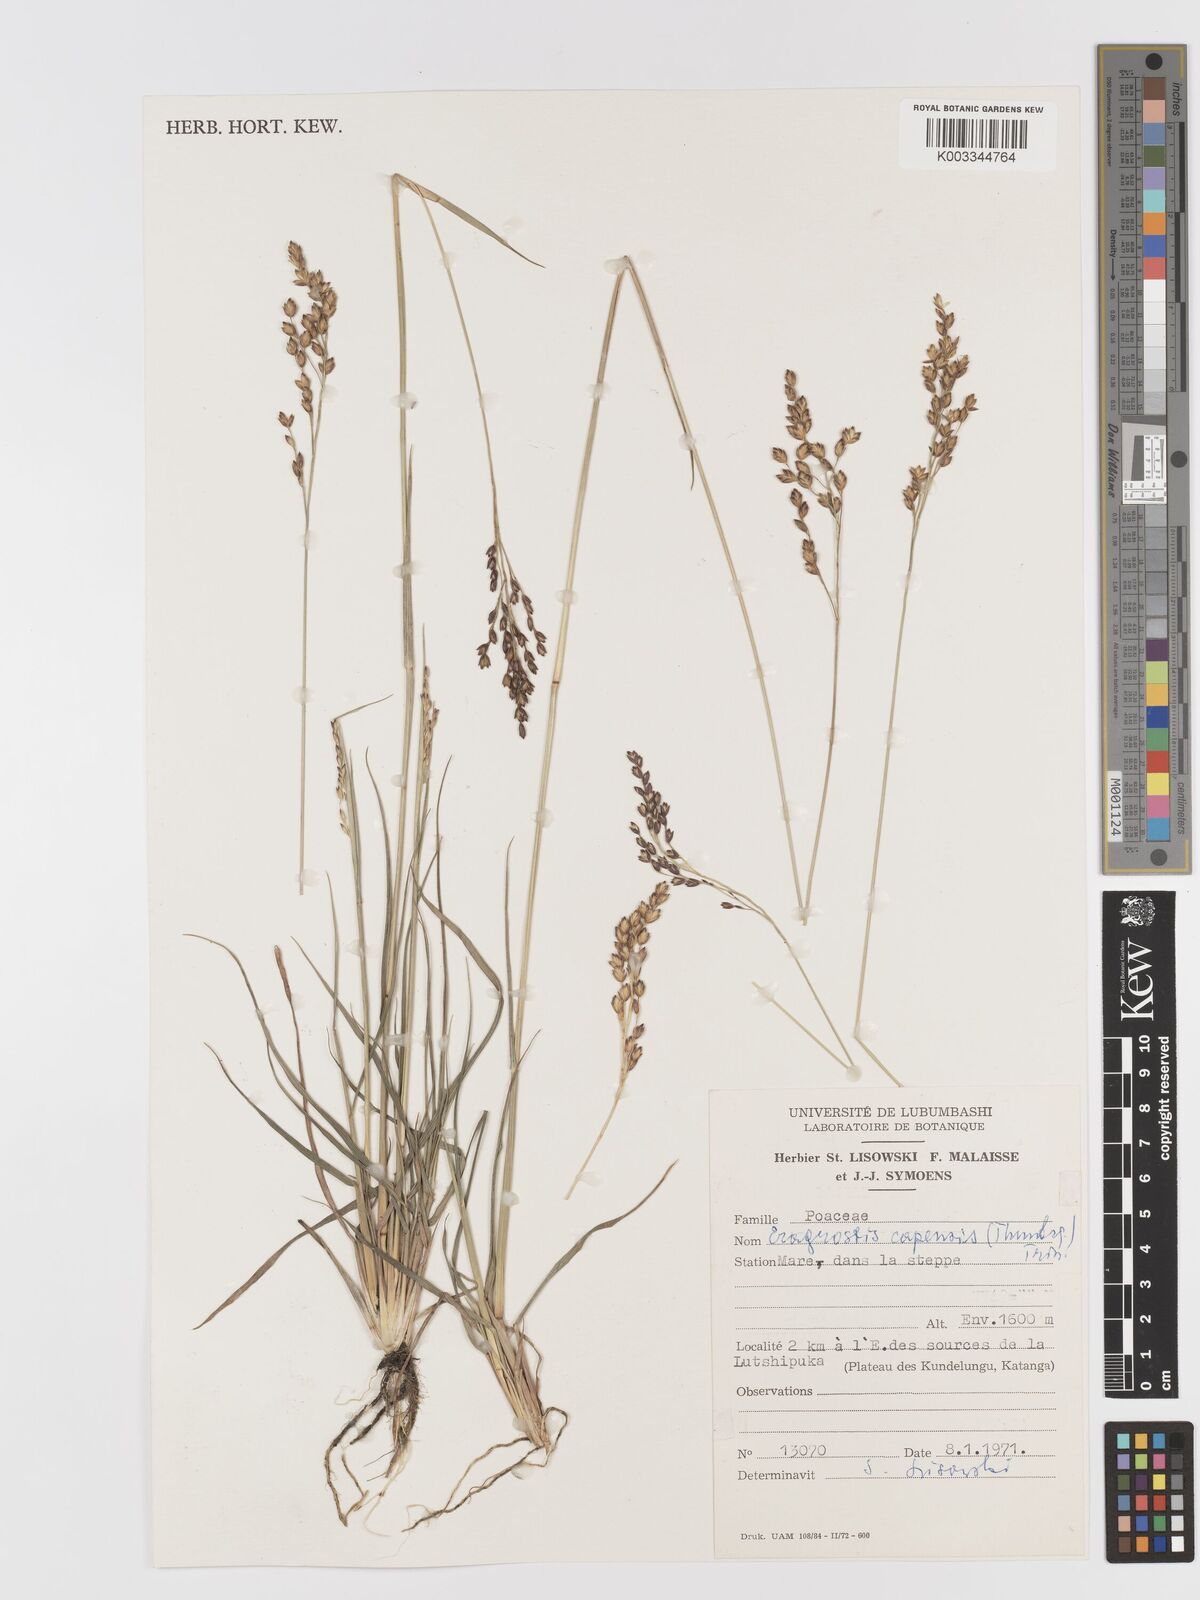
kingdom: Plantae
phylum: Tracheophyta
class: Liliopsida
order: Poales
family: Poaceae
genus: Eragrostis
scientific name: Eragrostis capensis
